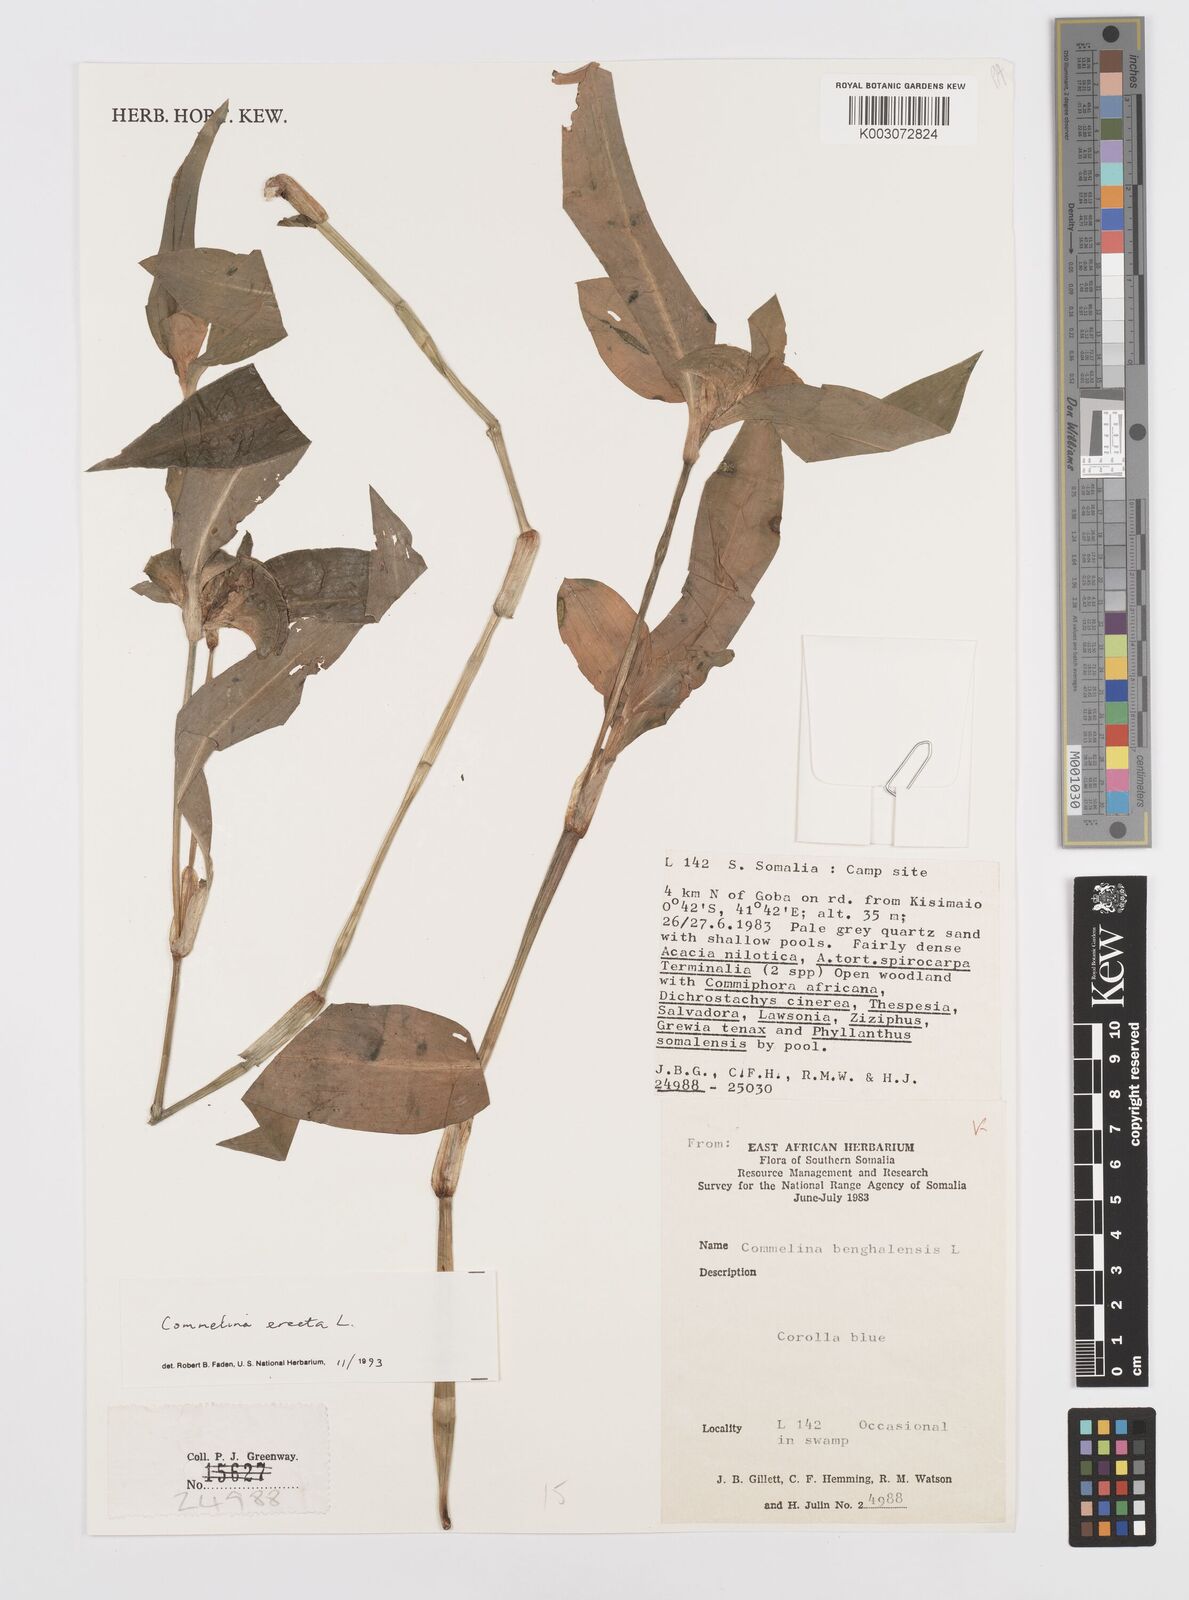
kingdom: Plantae
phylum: Tracheophyta
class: Liliopsida
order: Commelinales
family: Commelinaceae
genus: Commelina
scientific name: Commelina erecta
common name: Blousel blommetjie
